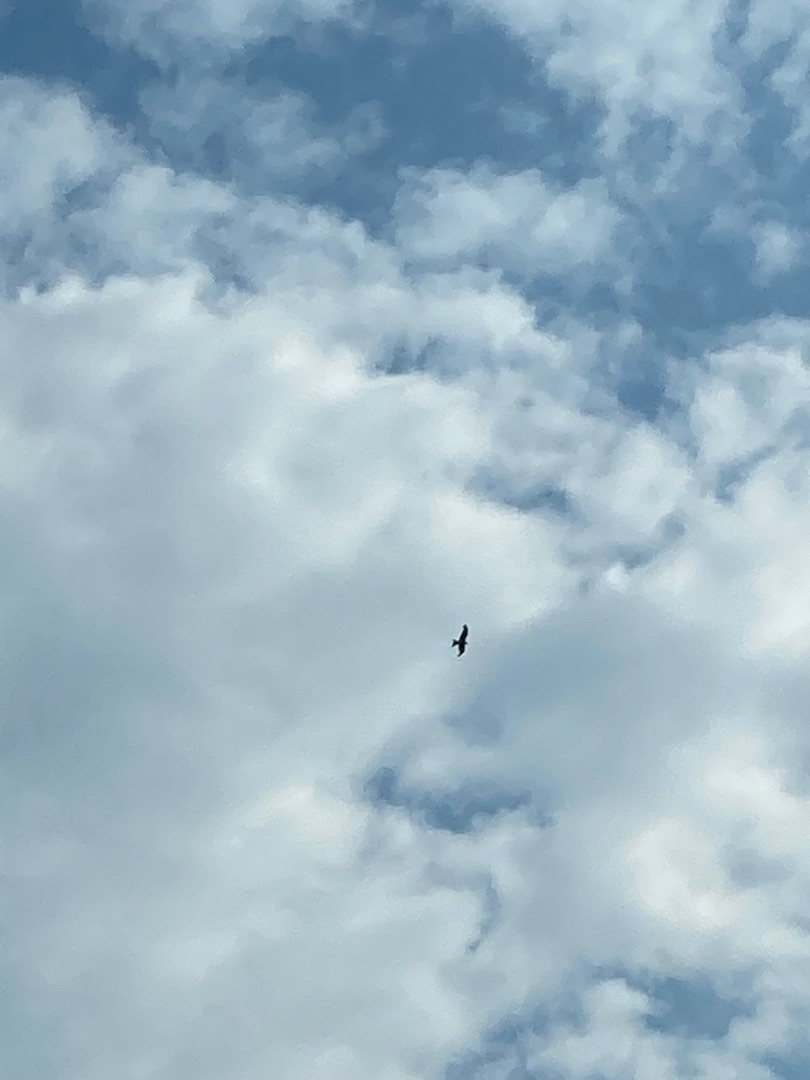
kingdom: Animalia
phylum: Chordata
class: Aves
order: Accipitriformes
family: Accipitridae
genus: Milvus
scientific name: Milvus milvus
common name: Rød glente
